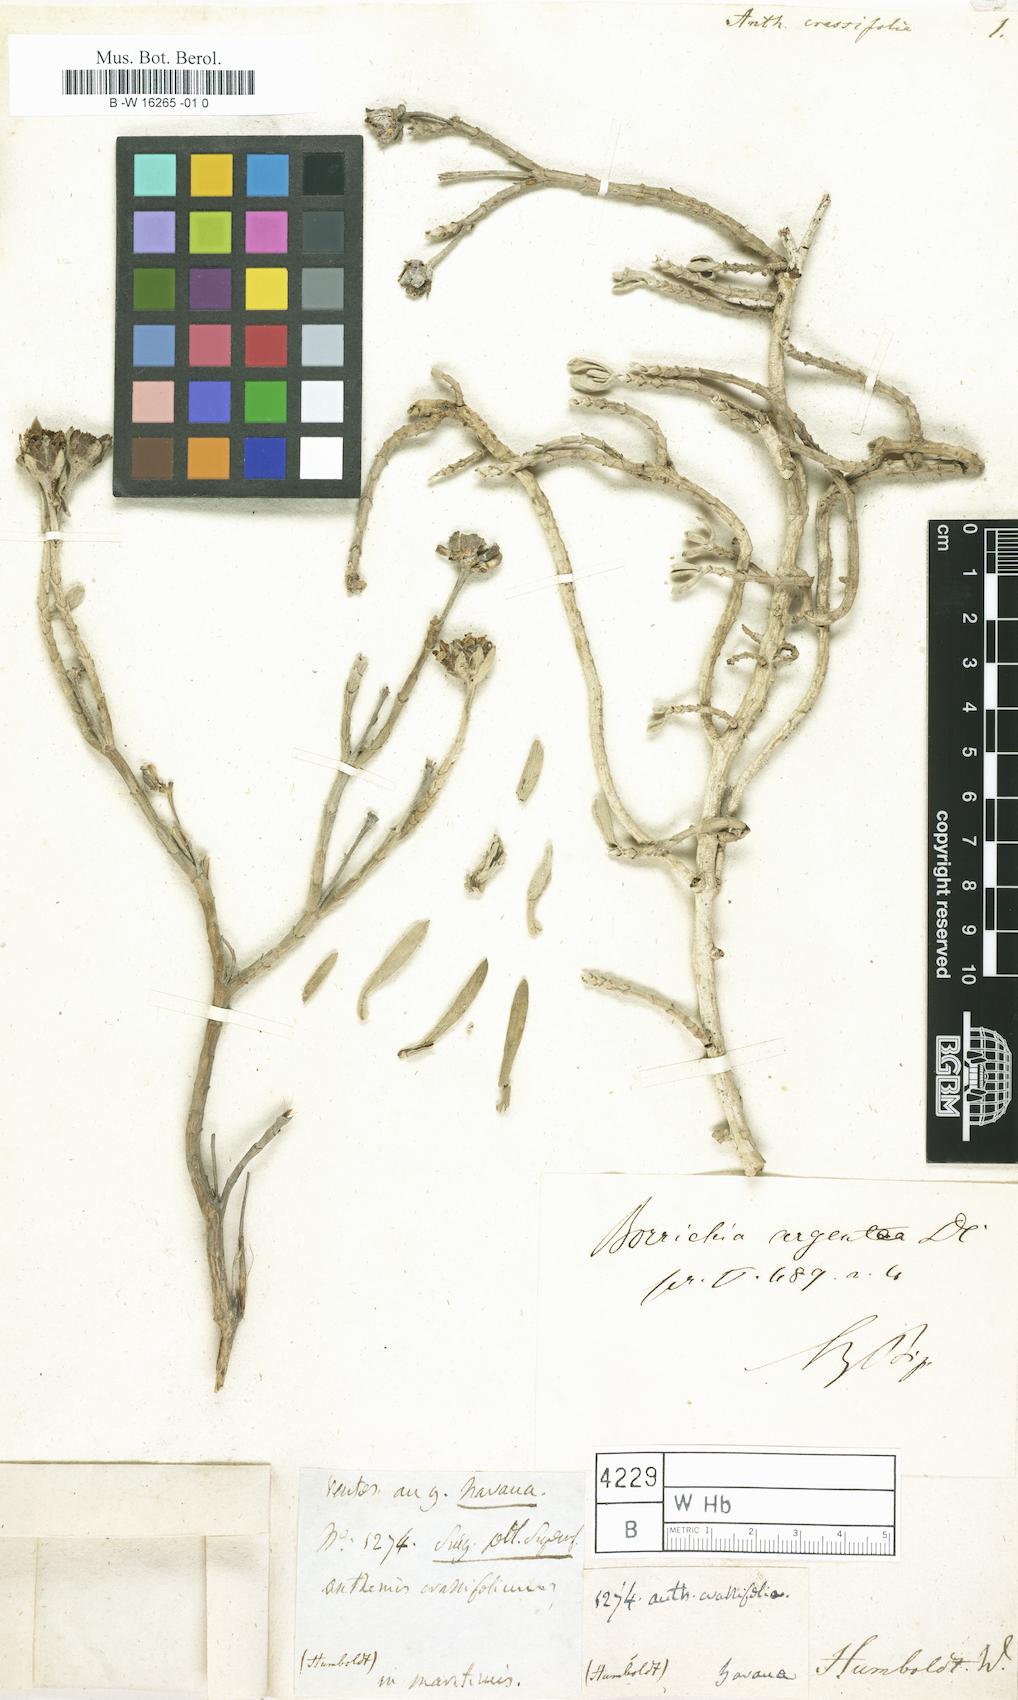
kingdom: Plantae
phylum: Tracheophyta
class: Magnoliopsida
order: Asterales
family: Asteraceae
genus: Borrichia
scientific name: Borrichia arborescens
